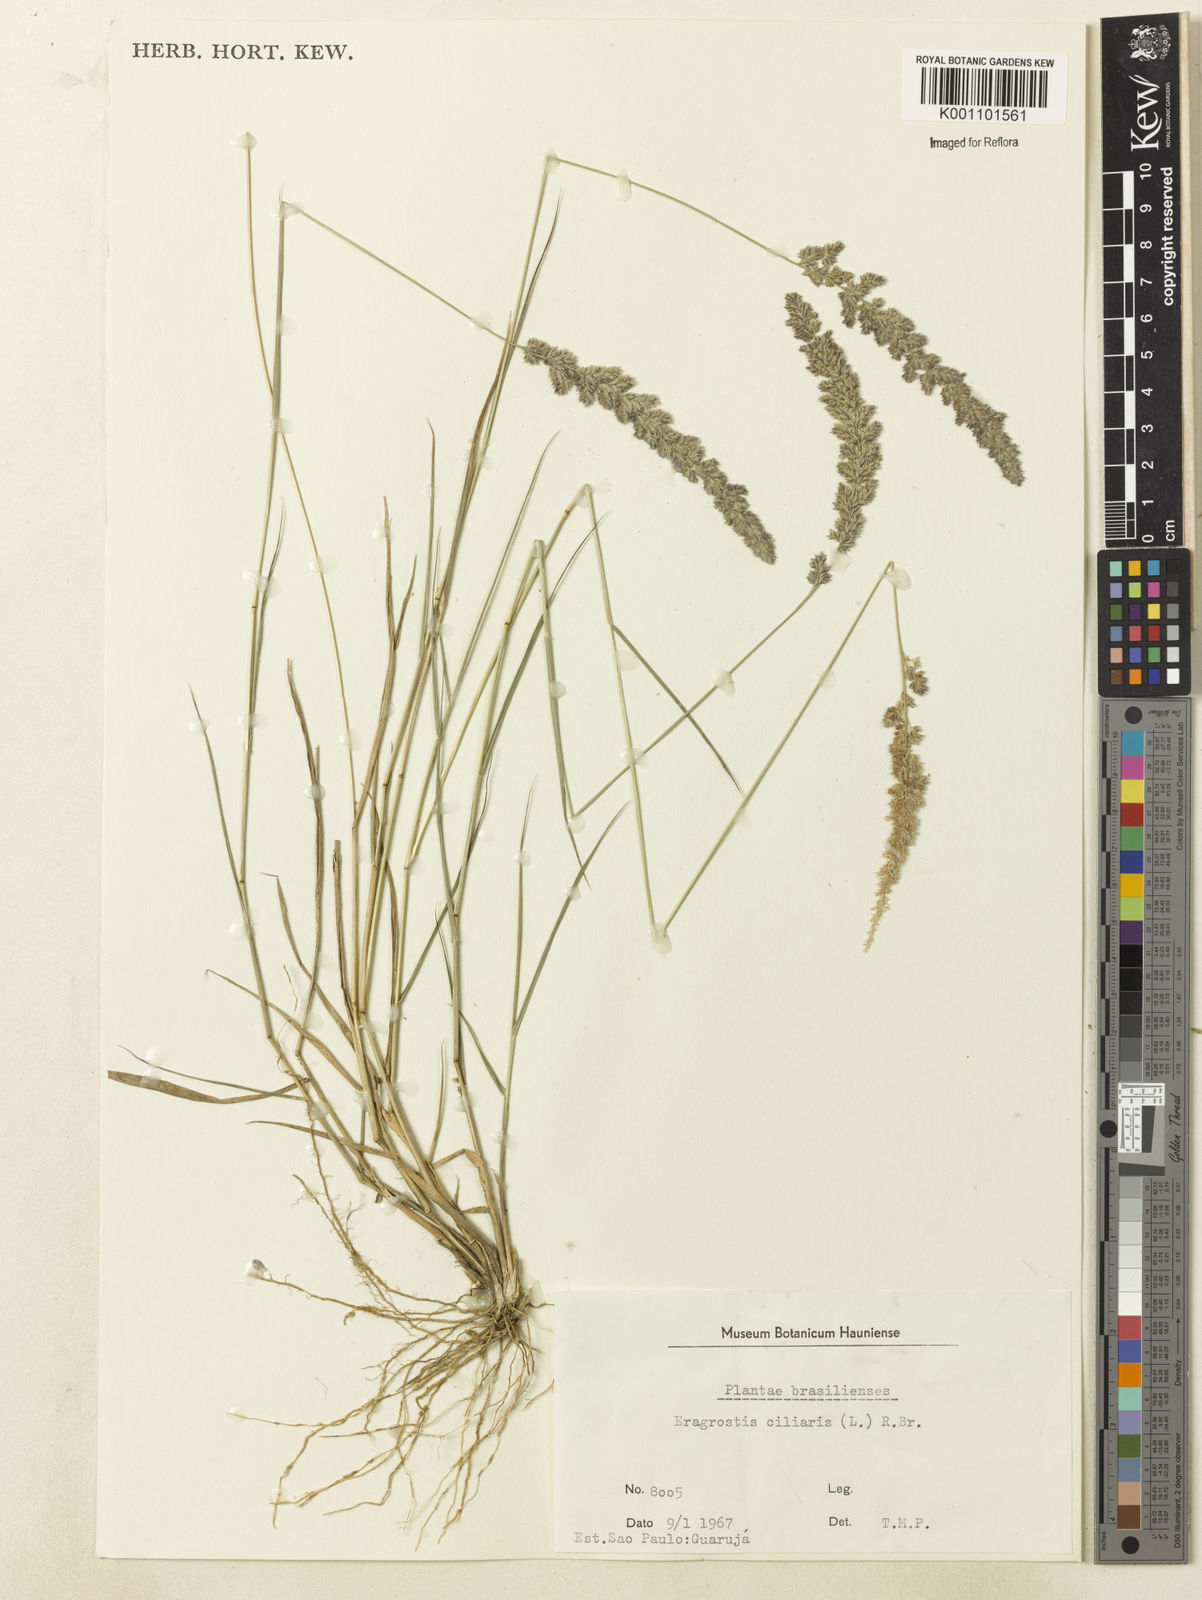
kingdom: Plantae
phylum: Tracheophyta
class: Liliopsida
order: Poales
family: Poaceae
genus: Eragrostis
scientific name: Eragrostis ciliaris
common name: Gophertail lovegrass
